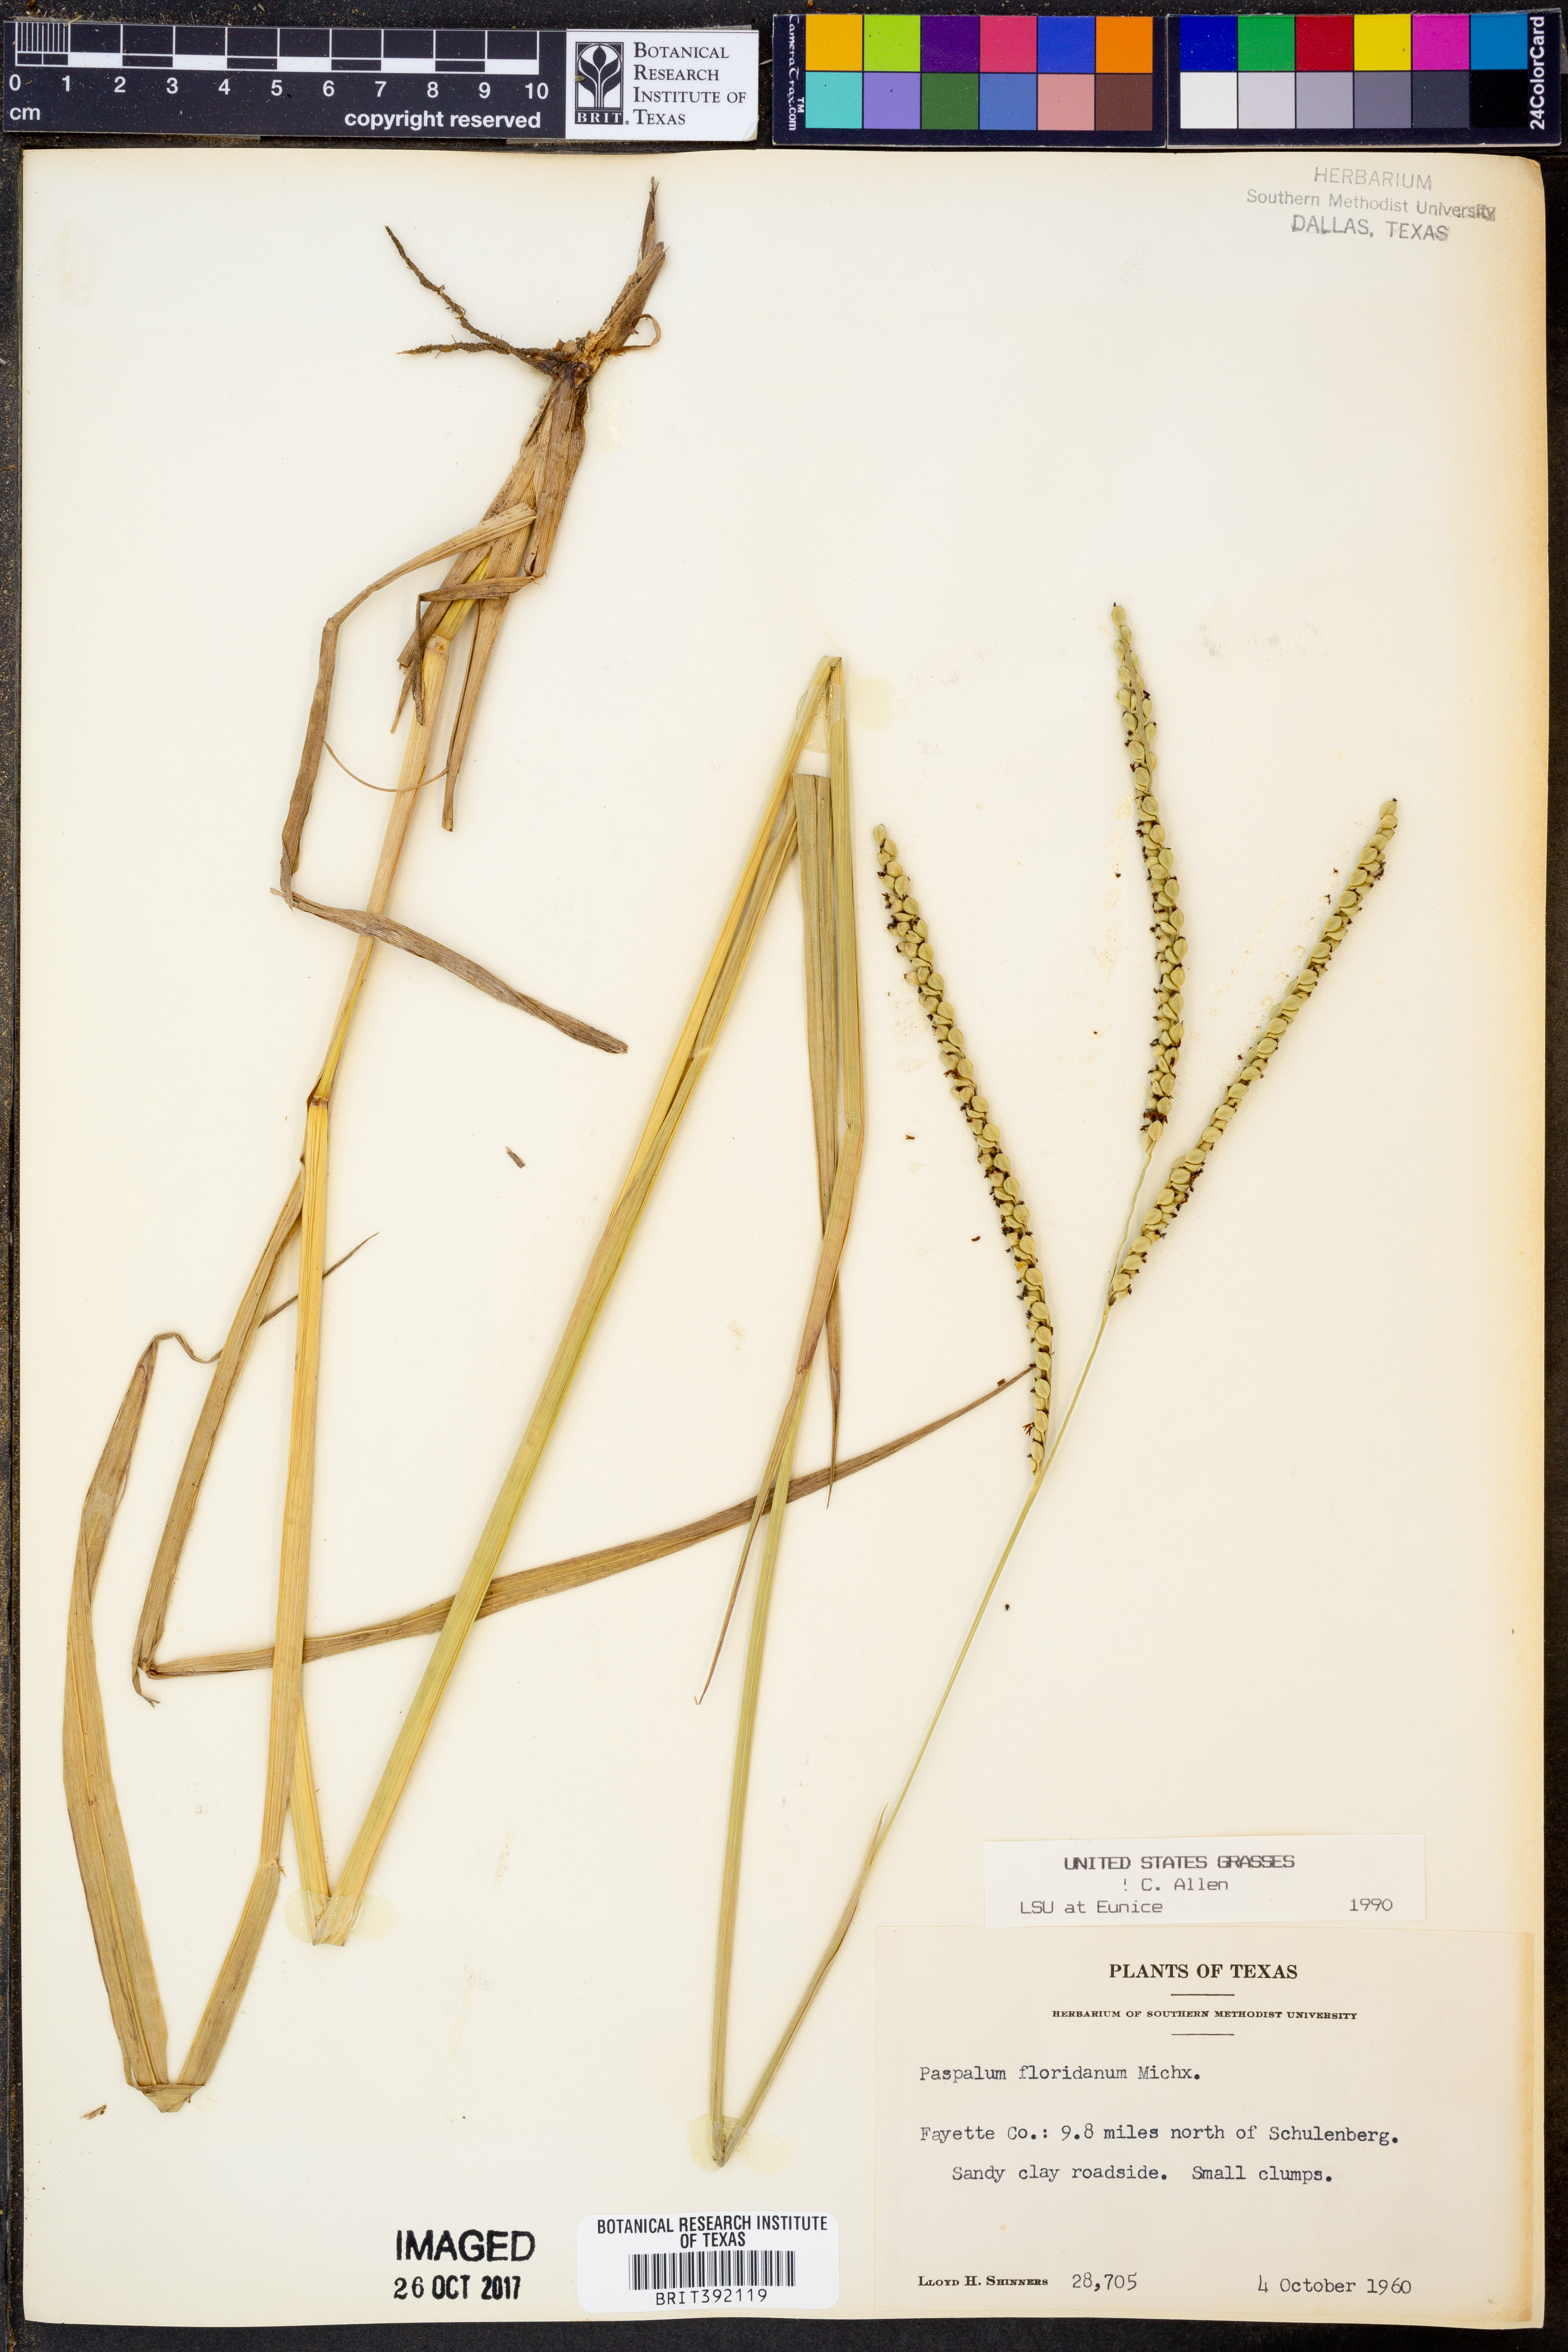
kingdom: Plantae
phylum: Tracheophyta
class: Liliopsida
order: Poales
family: Poaceae
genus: Paspalum
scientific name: Paspalum floridanum
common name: Florida paspalum
